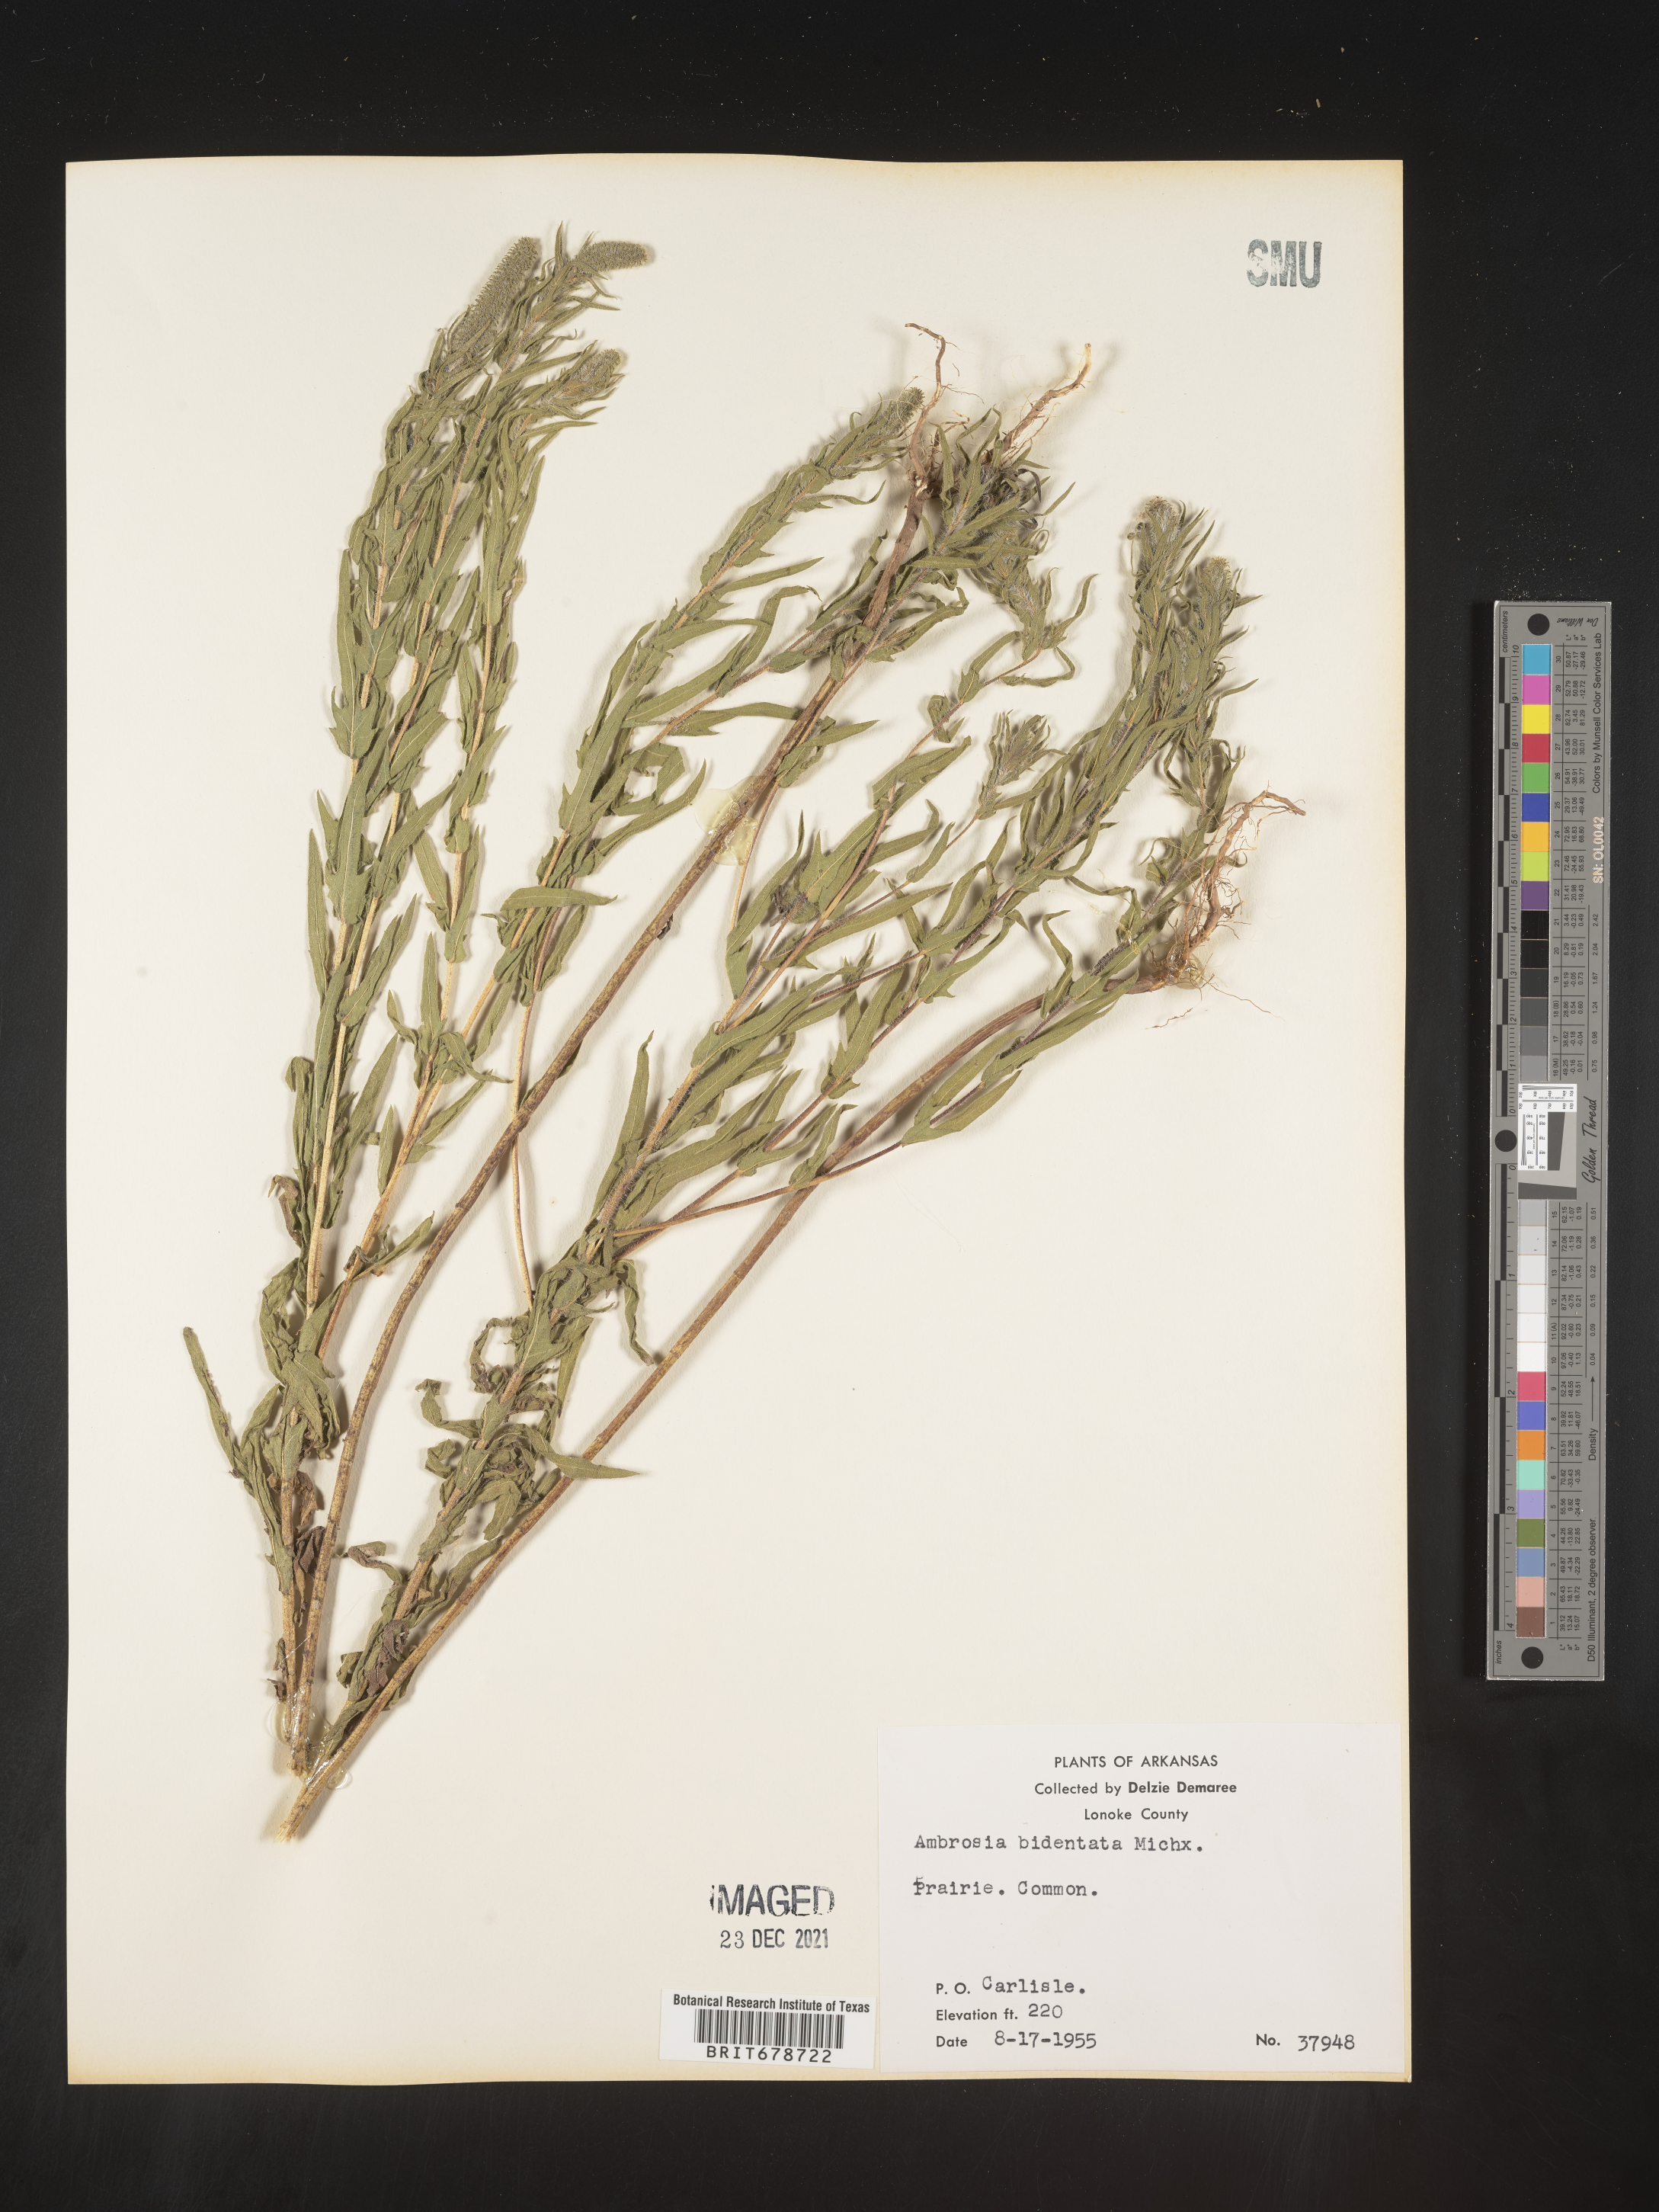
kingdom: Plantae
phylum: Tracheophyta
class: Magnoliopsida
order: Asterales
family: Asteraceae
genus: Ambrosia
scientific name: Ambrosia bidentata
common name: Southern ragweed
